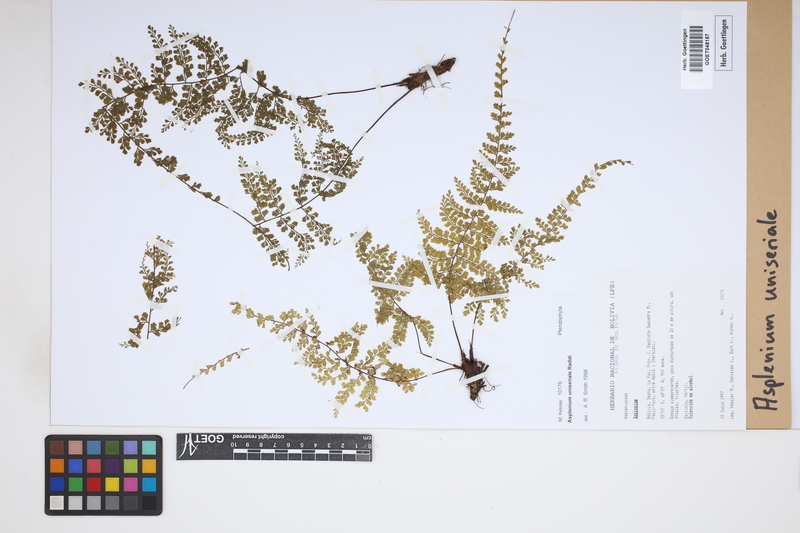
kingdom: Plantae
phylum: Tracheophyta
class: Polypodiopsida
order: Polypodiales
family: Aspleniaceae
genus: Asplenium
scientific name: Asplenium uniseriale
